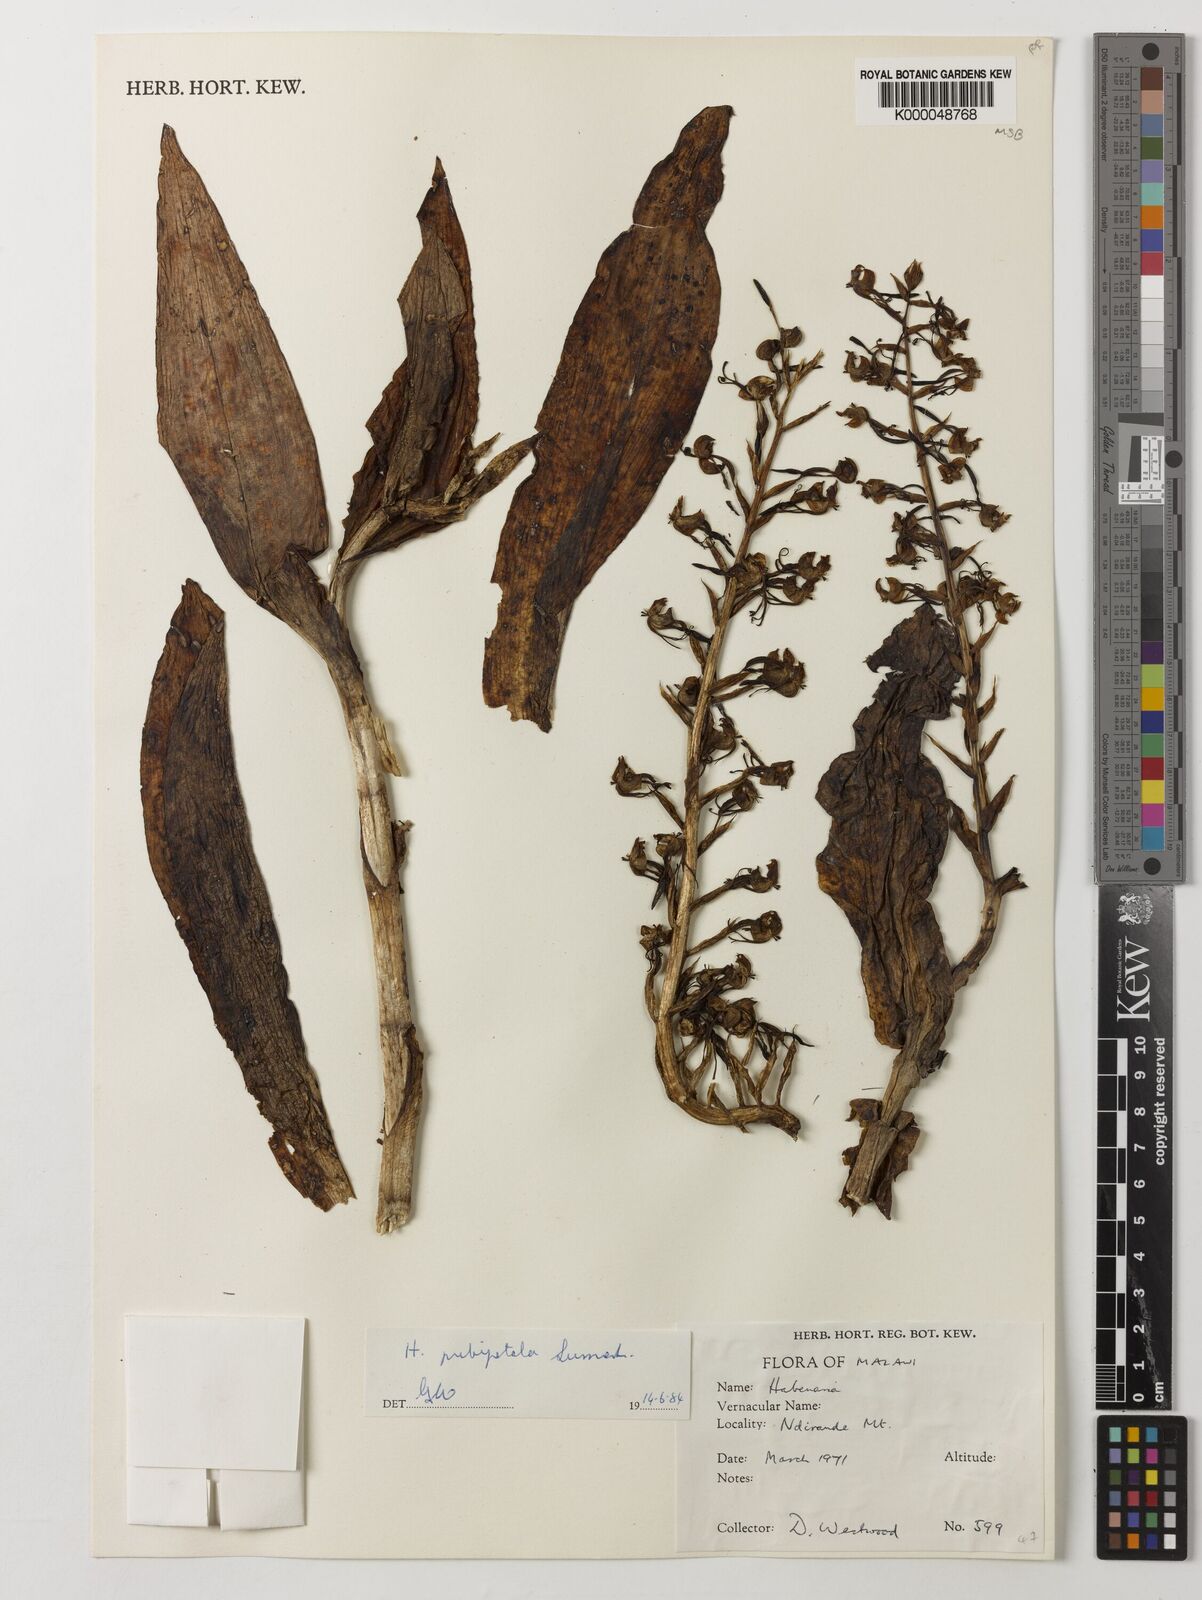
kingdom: Plantae
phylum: Tracheophyta
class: Liliopsida
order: Asparagales
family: Orchidaceae
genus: Habenaria
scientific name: Habenaria pubipetala
